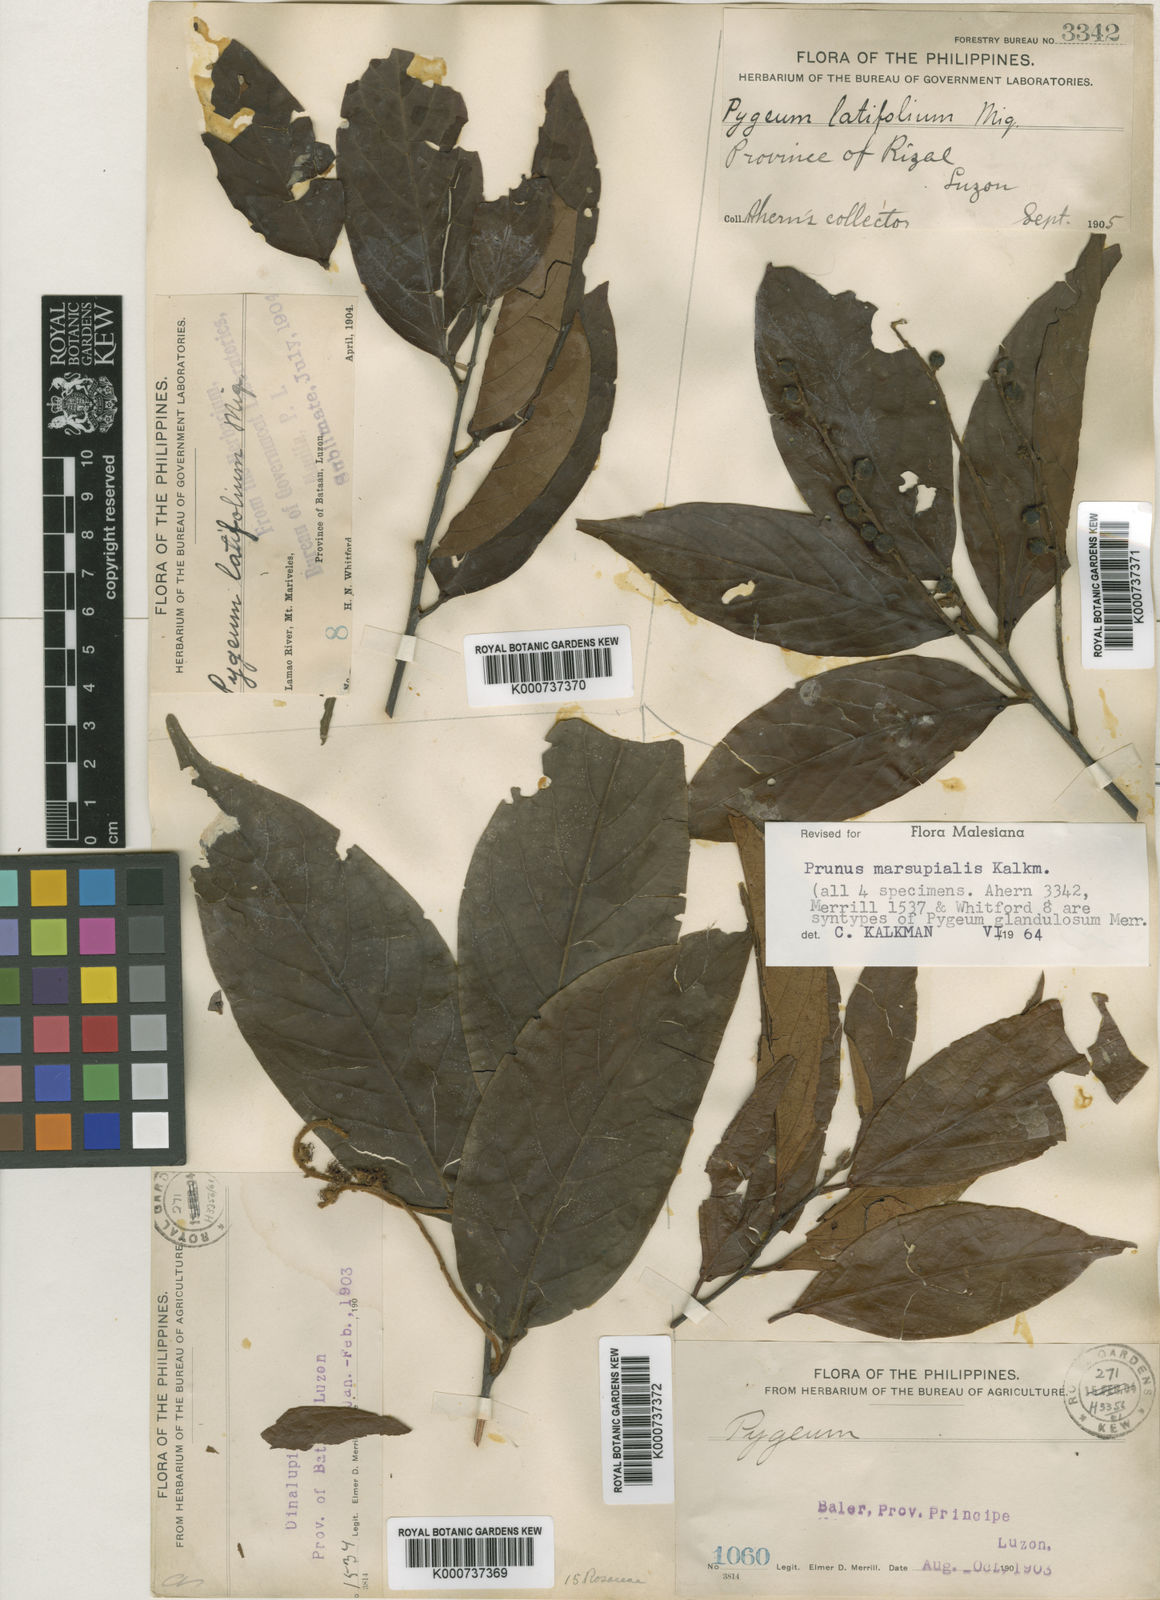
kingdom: Plantae
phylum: Tracheophyta
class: Magnoliopsida
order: Rosales
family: Rosaceae
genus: Prunus
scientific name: Prunus marsupialis
